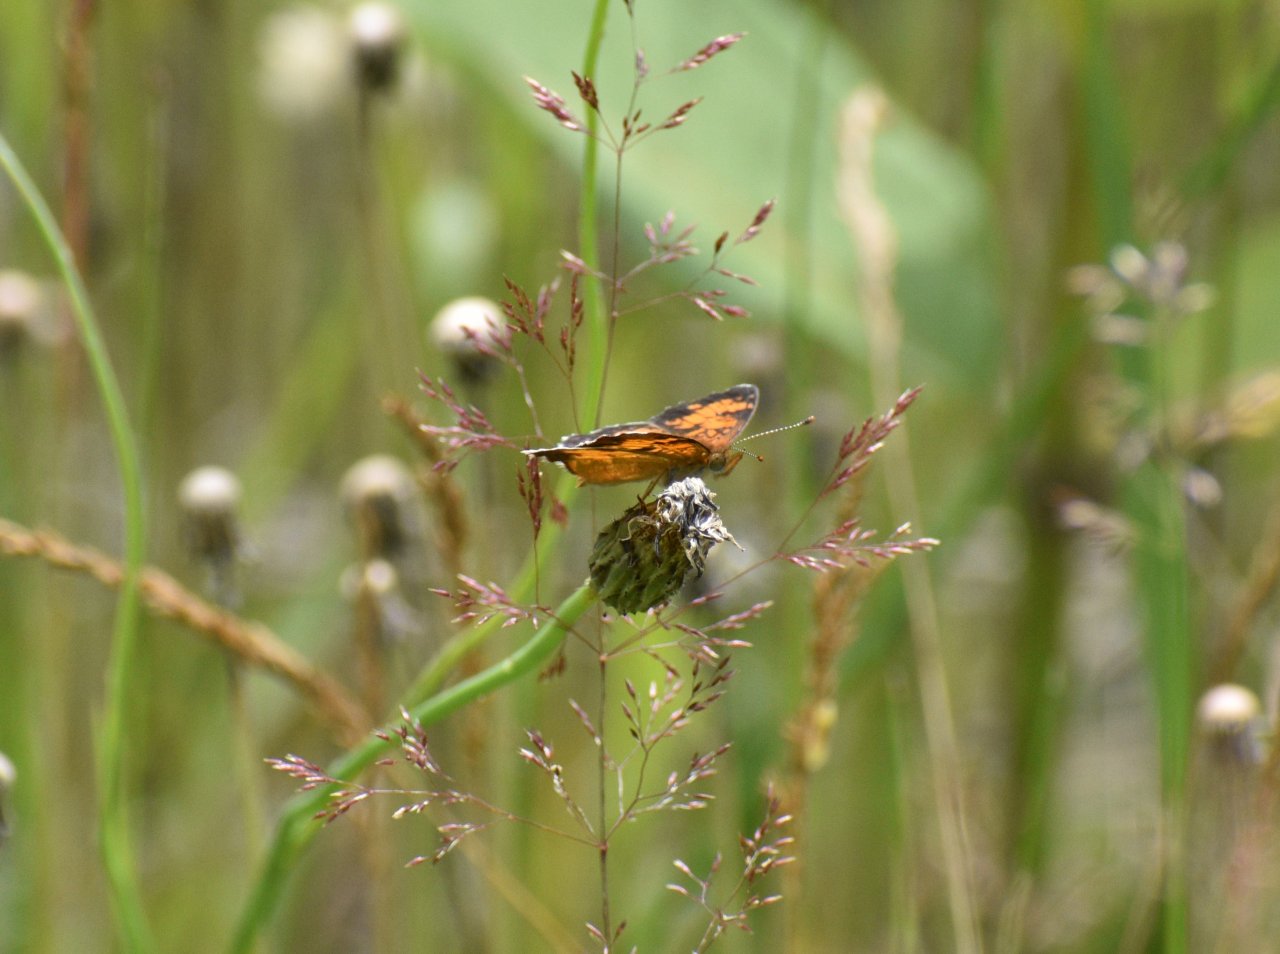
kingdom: Animalia
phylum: Arthropoda
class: Insecta
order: Lepidoptera
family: Nymphalidae
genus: Phyciodes
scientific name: Phyciodes tharos
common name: Northern Crescent
